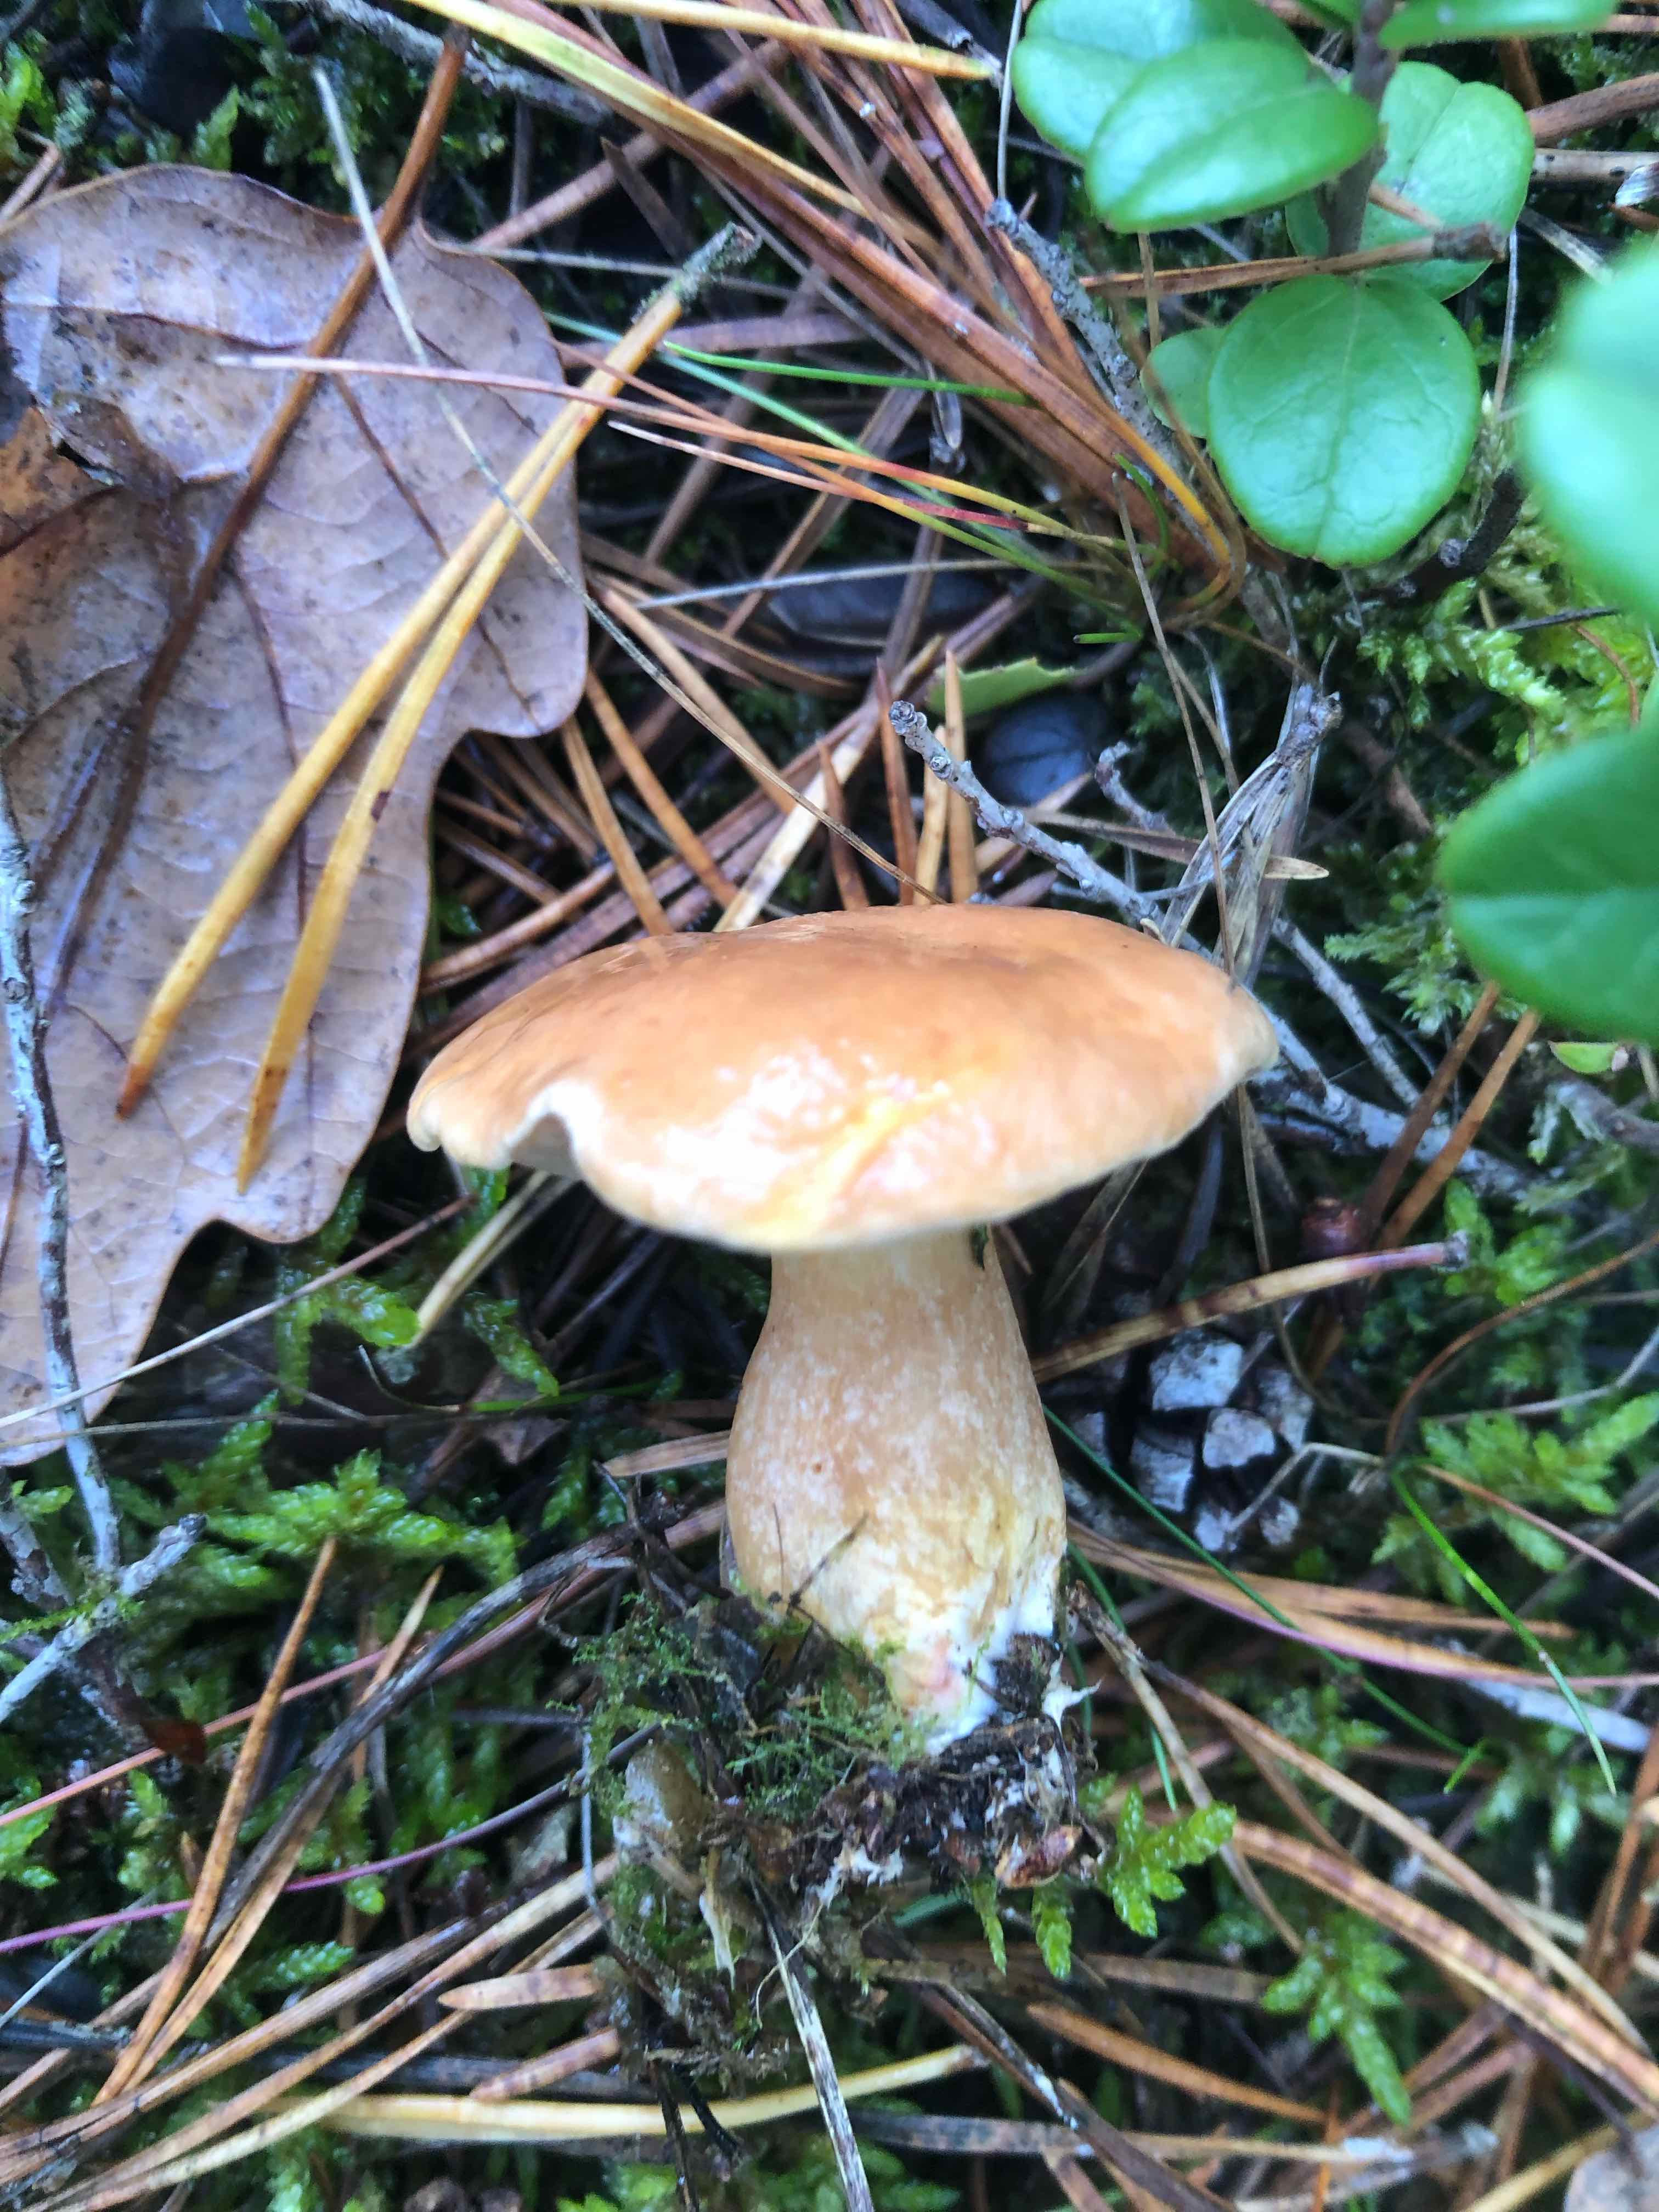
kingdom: Fungi
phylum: Basidiomycota
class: Agaricomycetes
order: Boletales
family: Suillaceae
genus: Suillus
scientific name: Suillus bovinus
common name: grovporet slimrørhat
